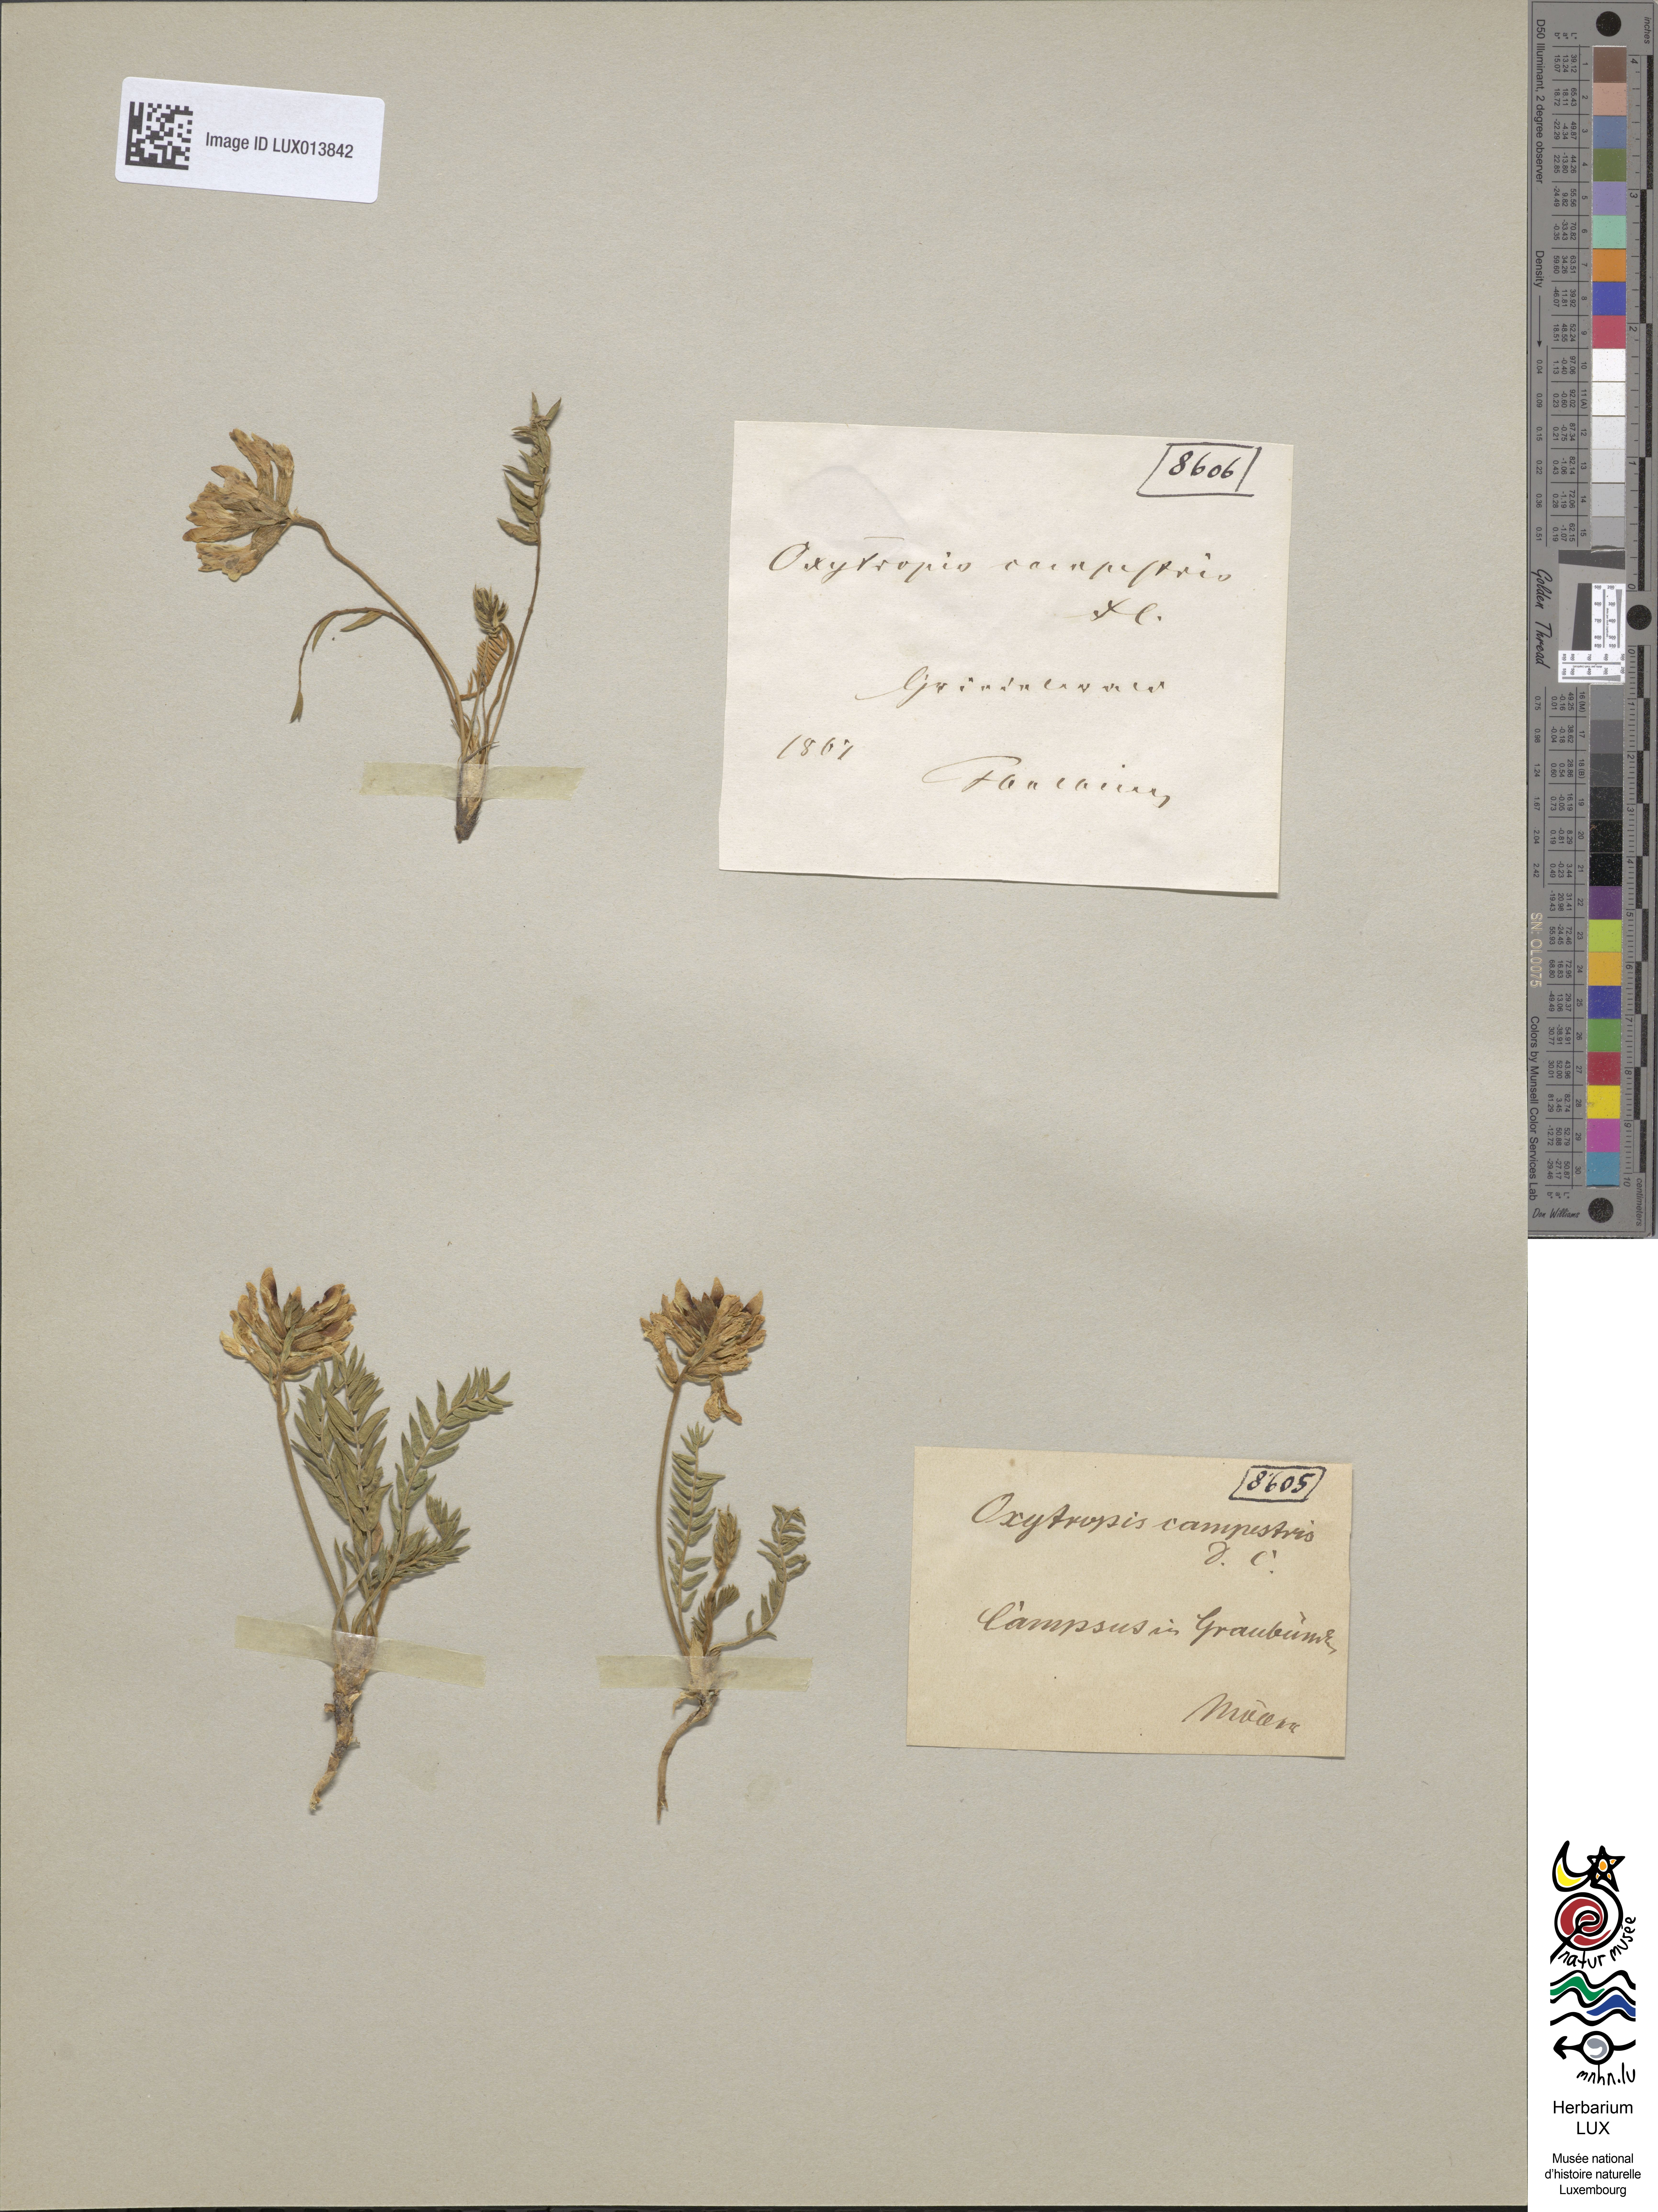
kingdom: Plantae
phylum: Tracheophyta
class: Magnoliopsida
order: Fabales
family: Fabaceae
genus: Oxytropis
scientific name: Oxytropis campestris
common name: Field locoweed
